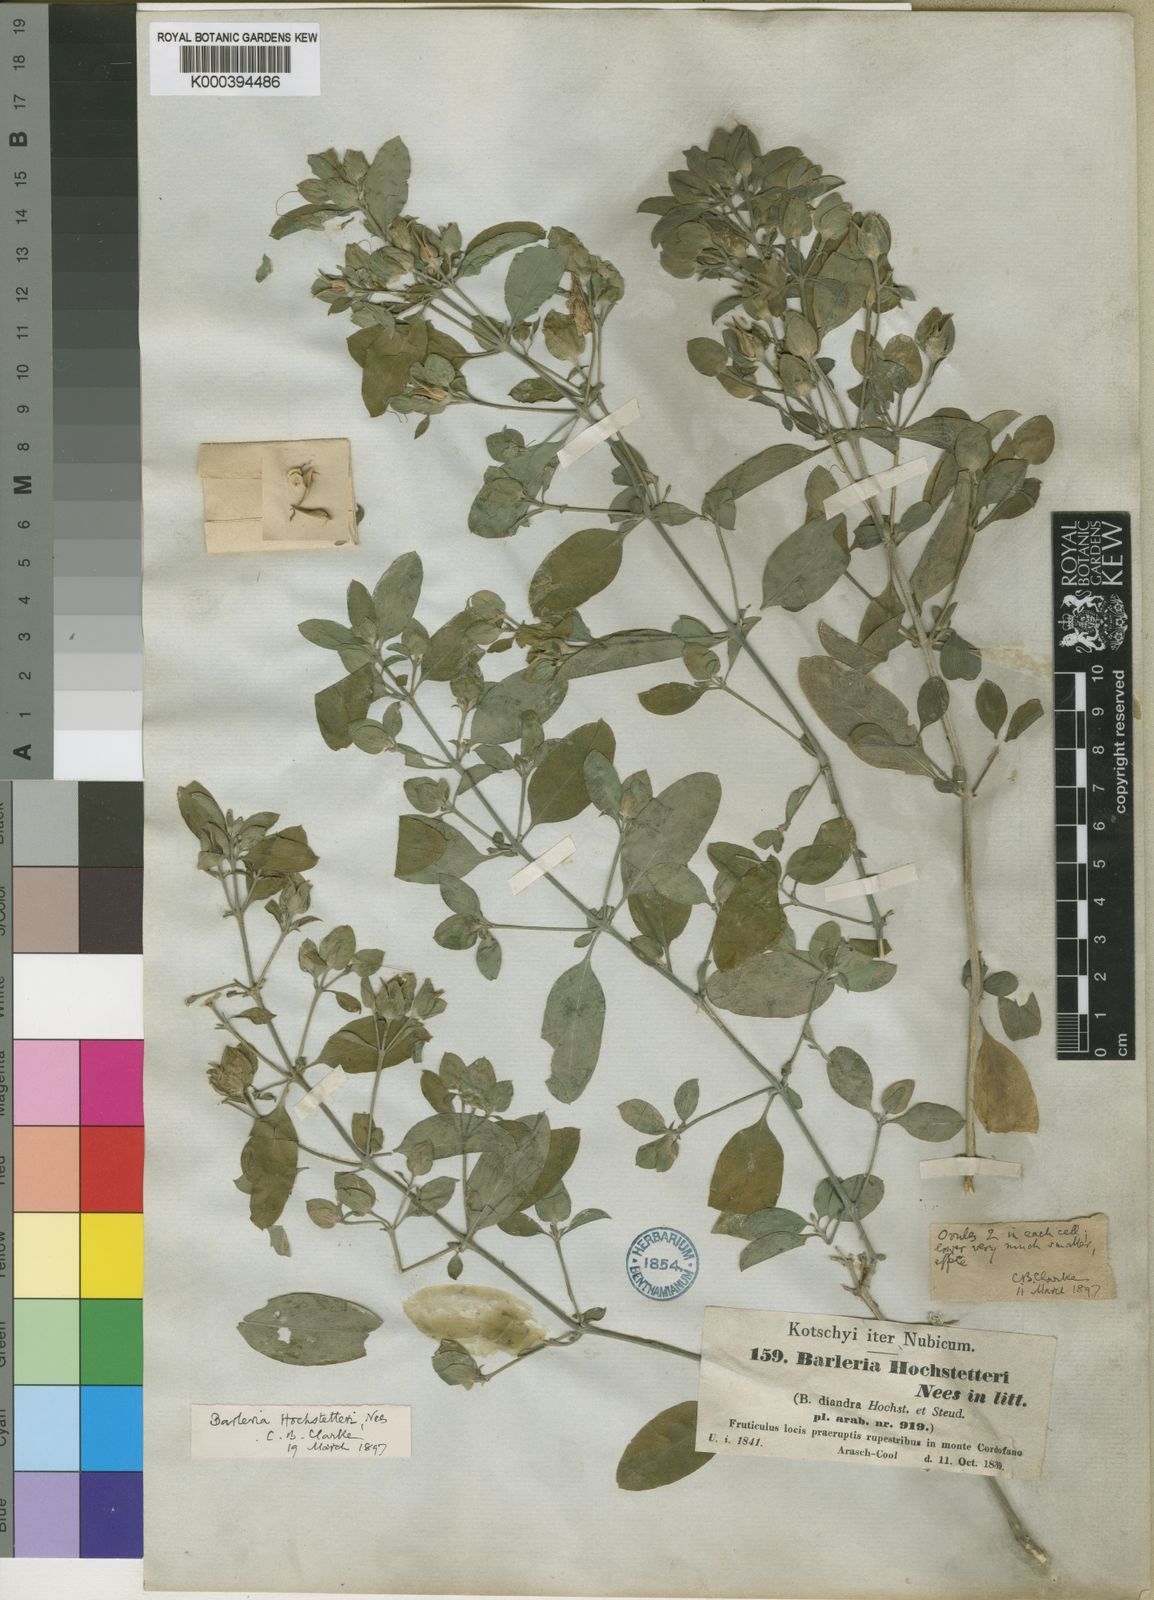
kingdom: Plantae
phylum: Tracheophyta
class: Magnoliopsida
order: Lamiales
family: Acanthaceae
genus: Barleria
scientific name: Barleria hochstetteri
